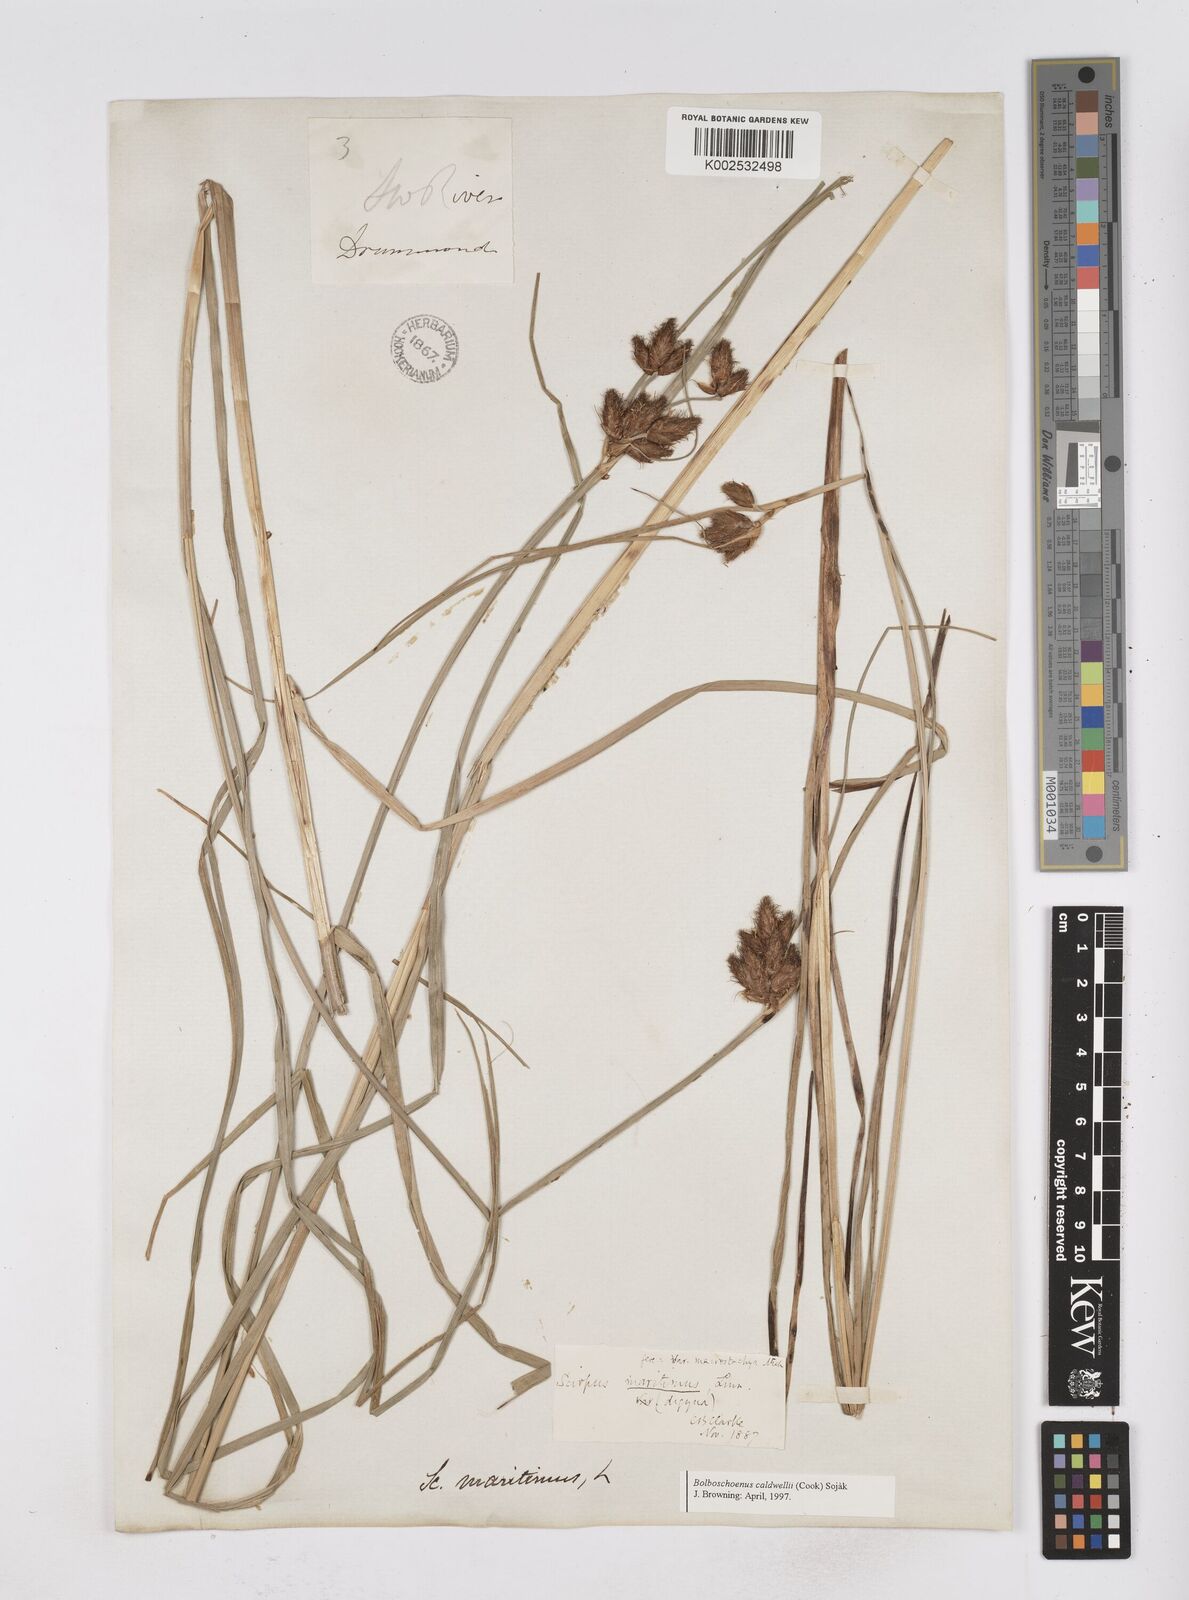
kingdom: Plantae
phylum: Tracheophyta
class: Liliopsida
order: Poales
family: Cyperaceae
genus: Bolboschoenus
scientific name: Bolboschoenus maritimus
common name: Sea club-rush
